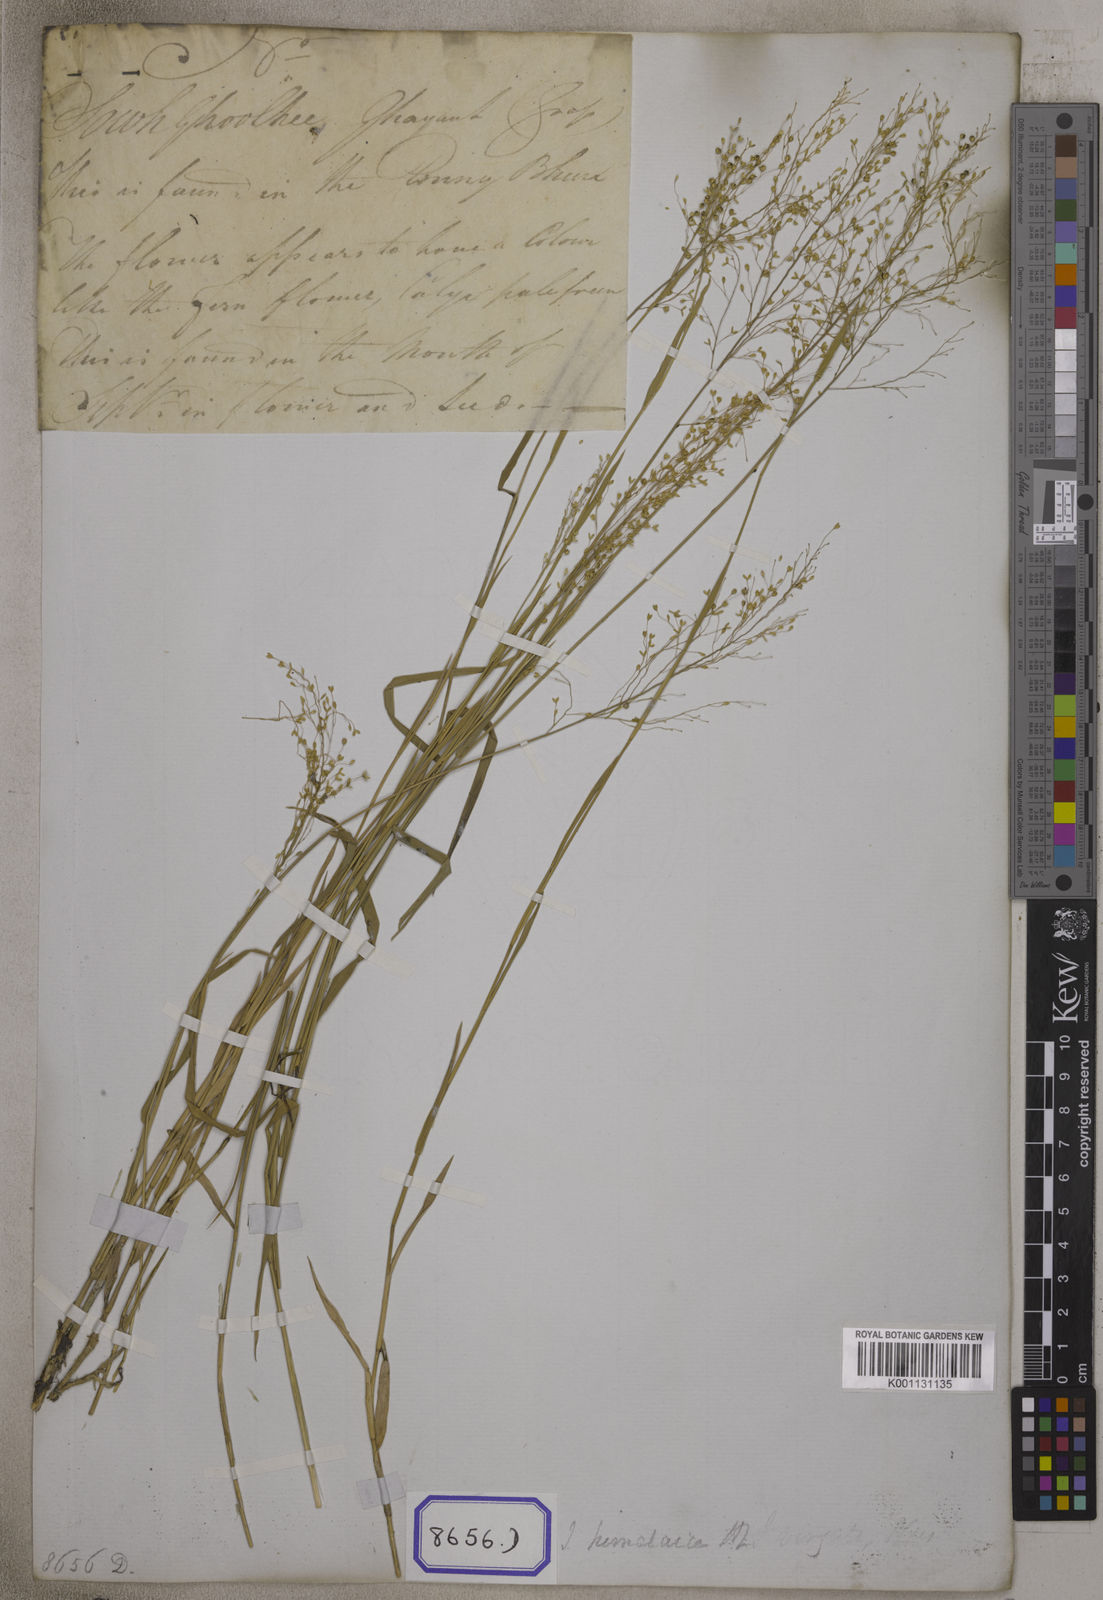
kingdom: Plantae
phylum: Tracheophyta
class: Liliopsida
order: Poales
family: Poaceae
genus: Isachne
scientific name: Isachne
